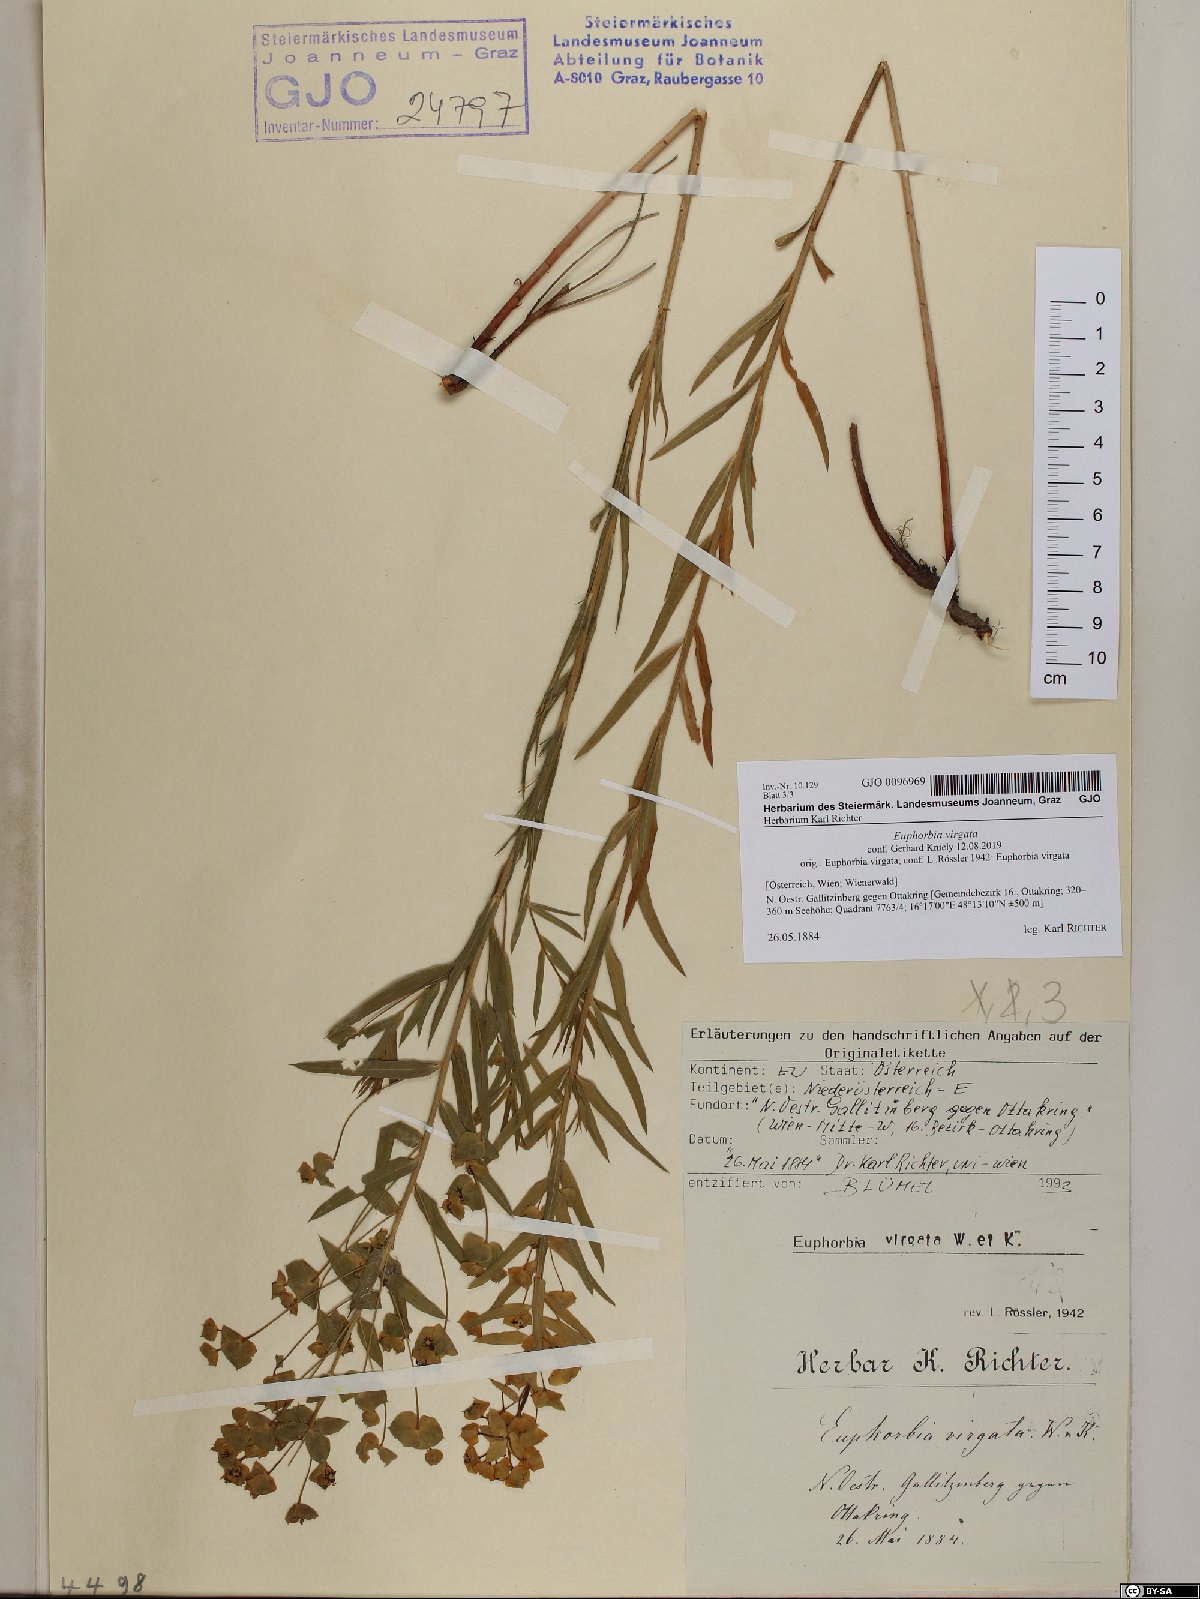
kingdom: Plantae
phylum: Tracheophyta
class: Magnoliopsida
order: Malpighiales
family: Euphorbiaceae
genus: Euphorbia
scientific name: Euphorbia virgata
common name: Leafy spurge
